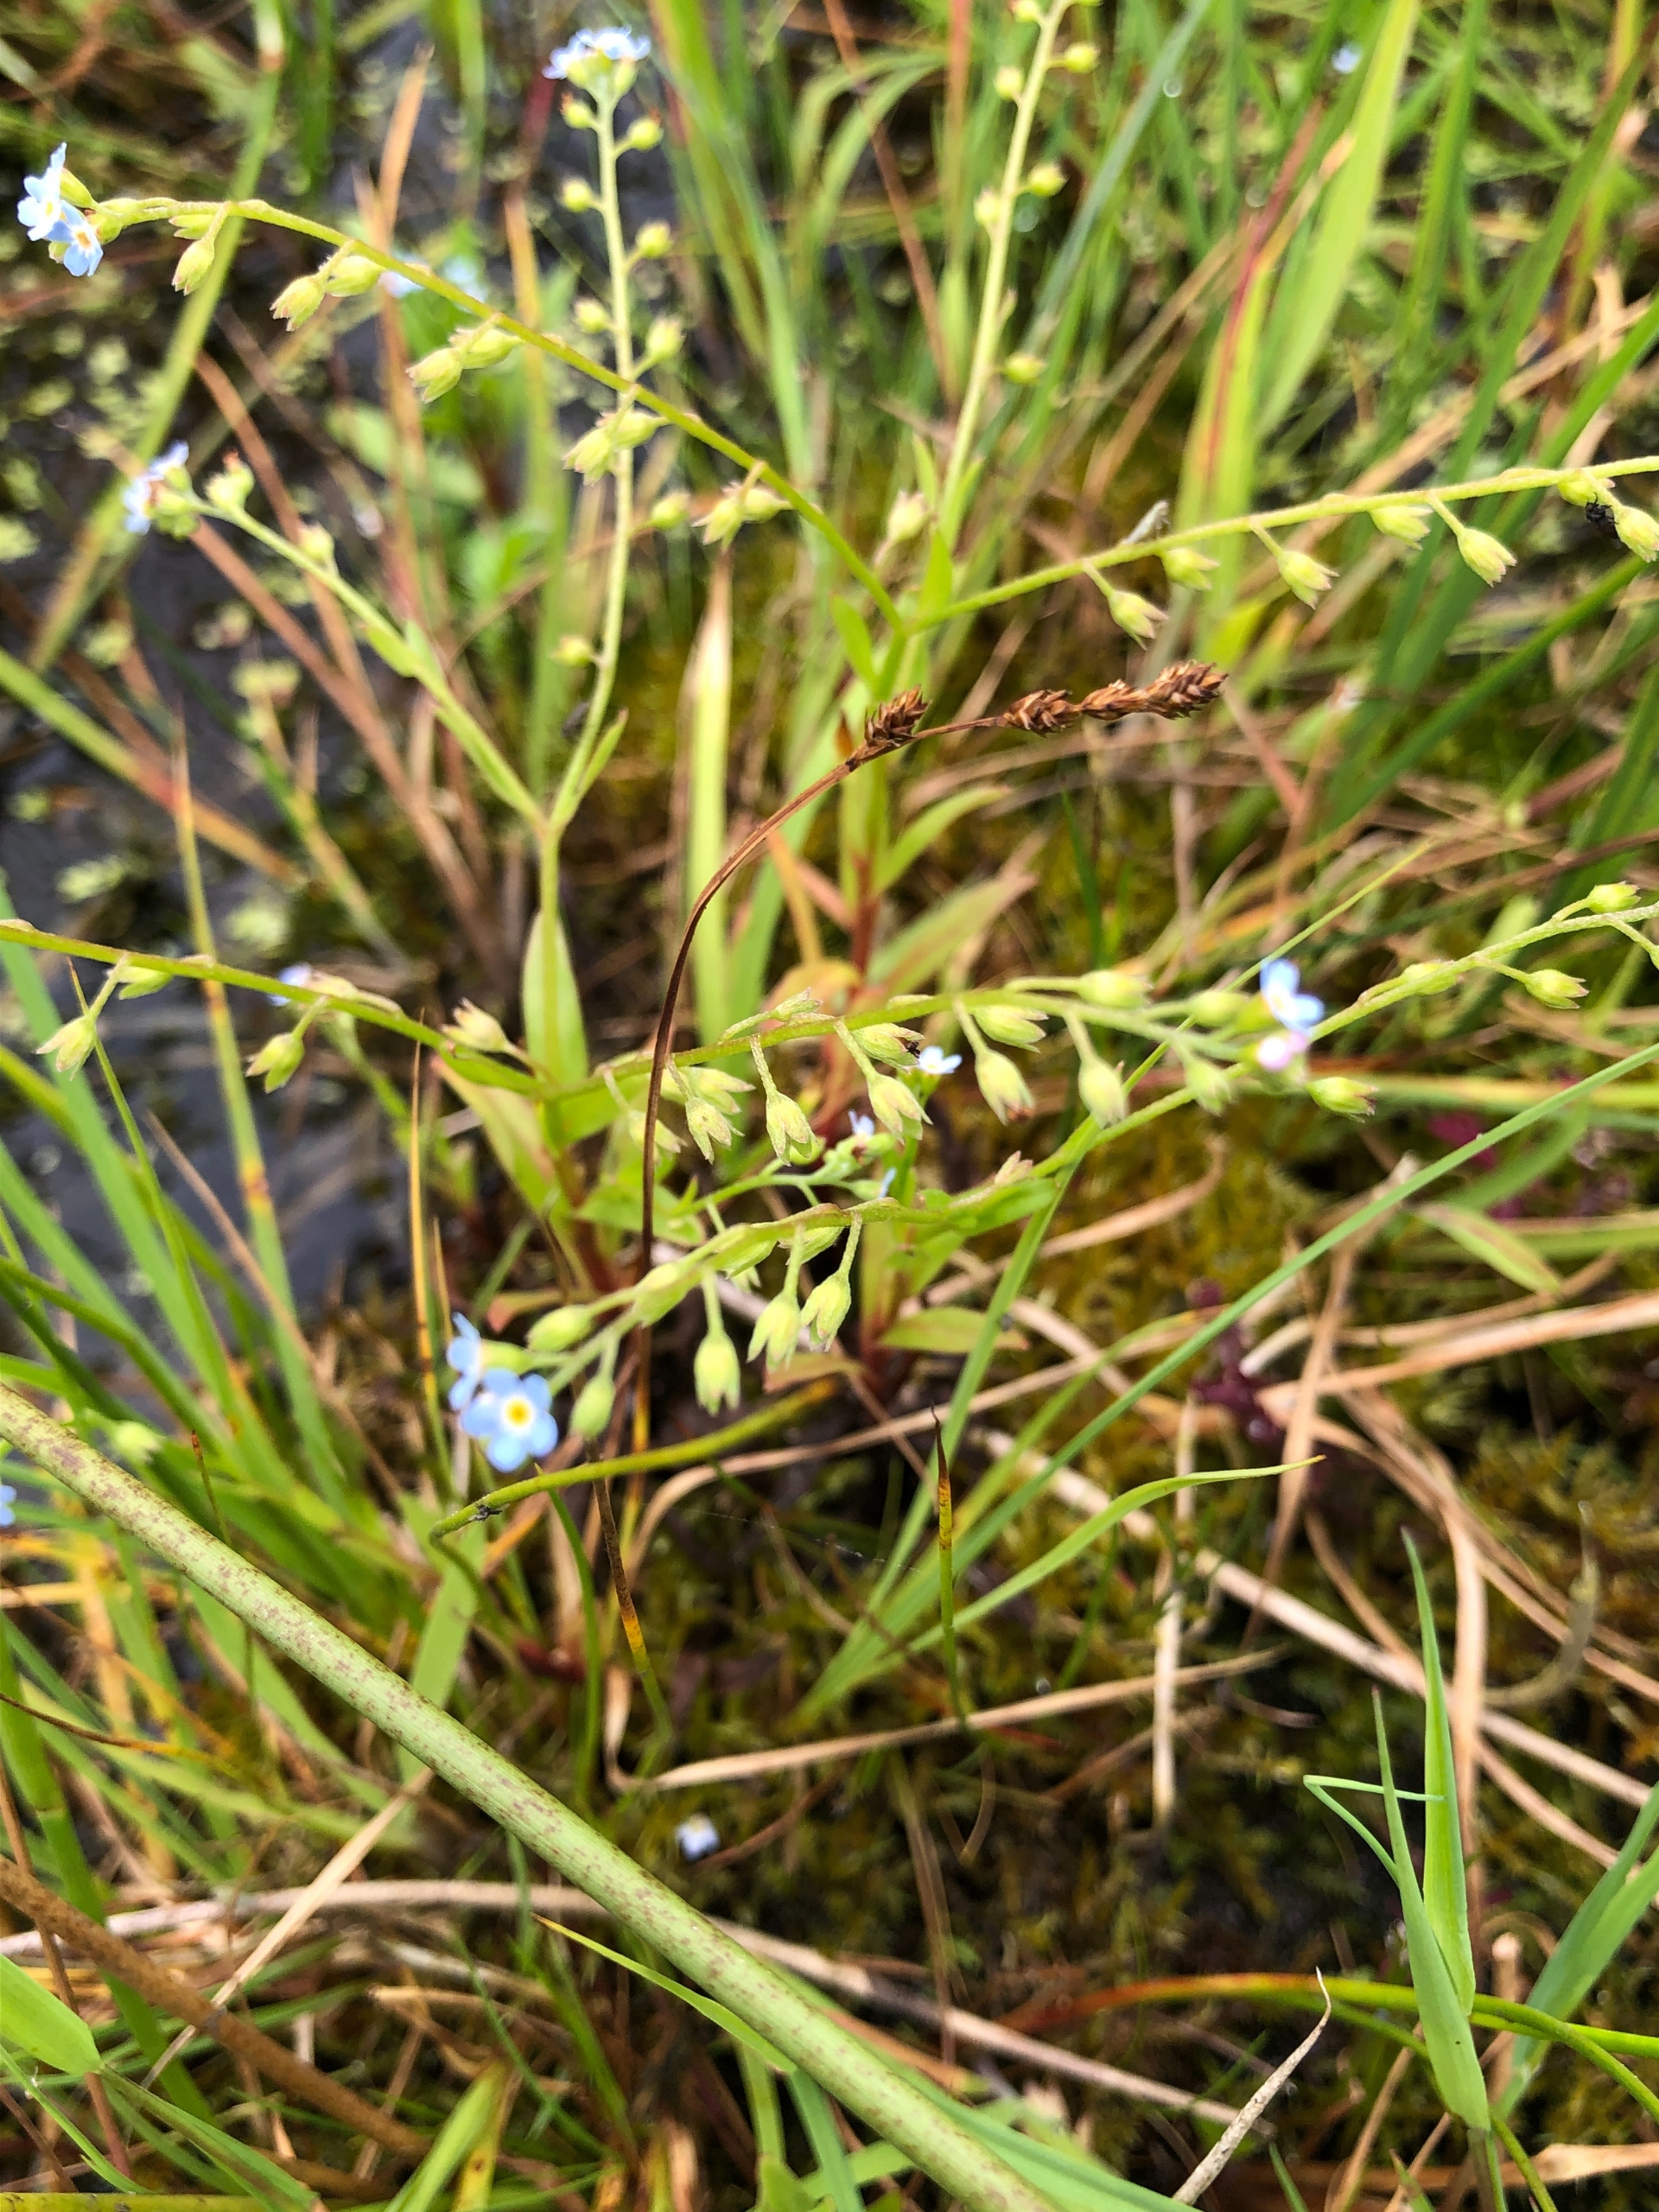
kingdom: Plantae
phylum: Tracheophyta
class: Magnoliopsida
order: Boraginales
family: Boraginaceae
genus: Myosotis
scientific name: Myosotis laxa
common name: Sump-forglemmigej
